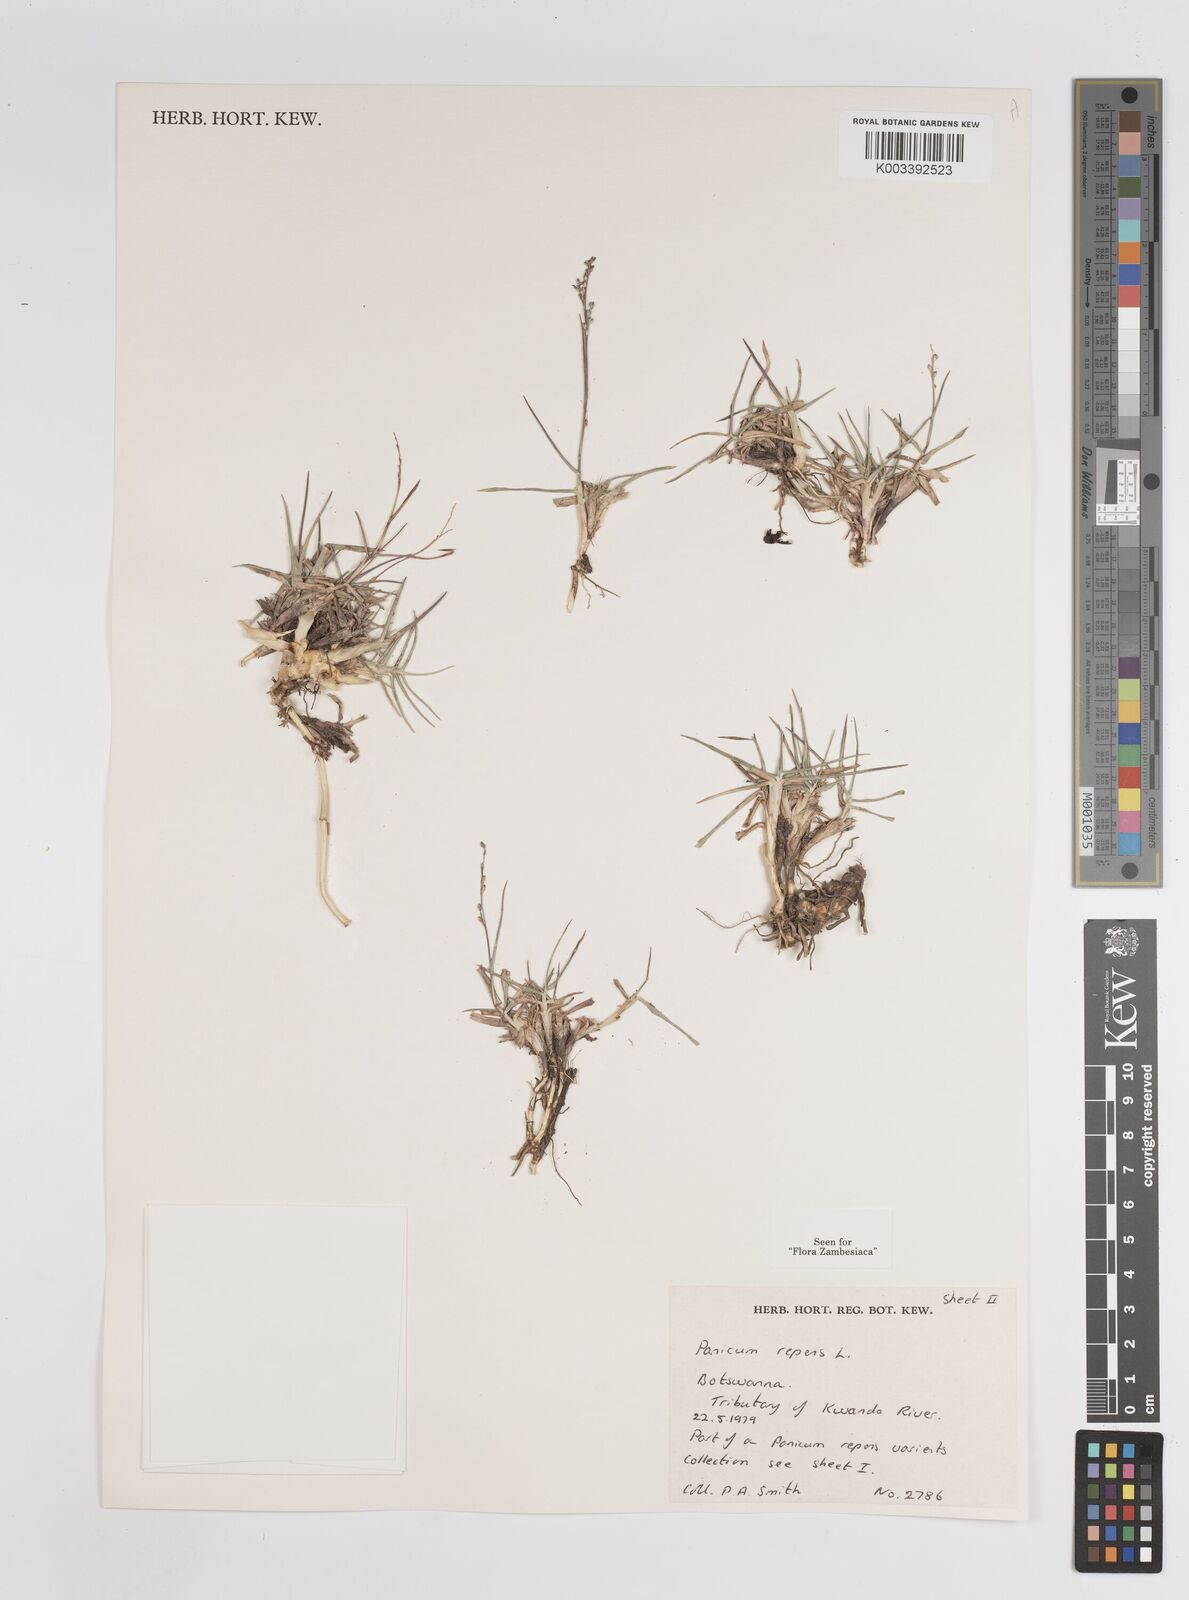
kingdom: Plantae
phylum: Tracheophyta
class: Liliopsida
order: Poales
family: Poaceae
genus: Panicum
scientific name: Panicum repens
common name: Torpedo grass
